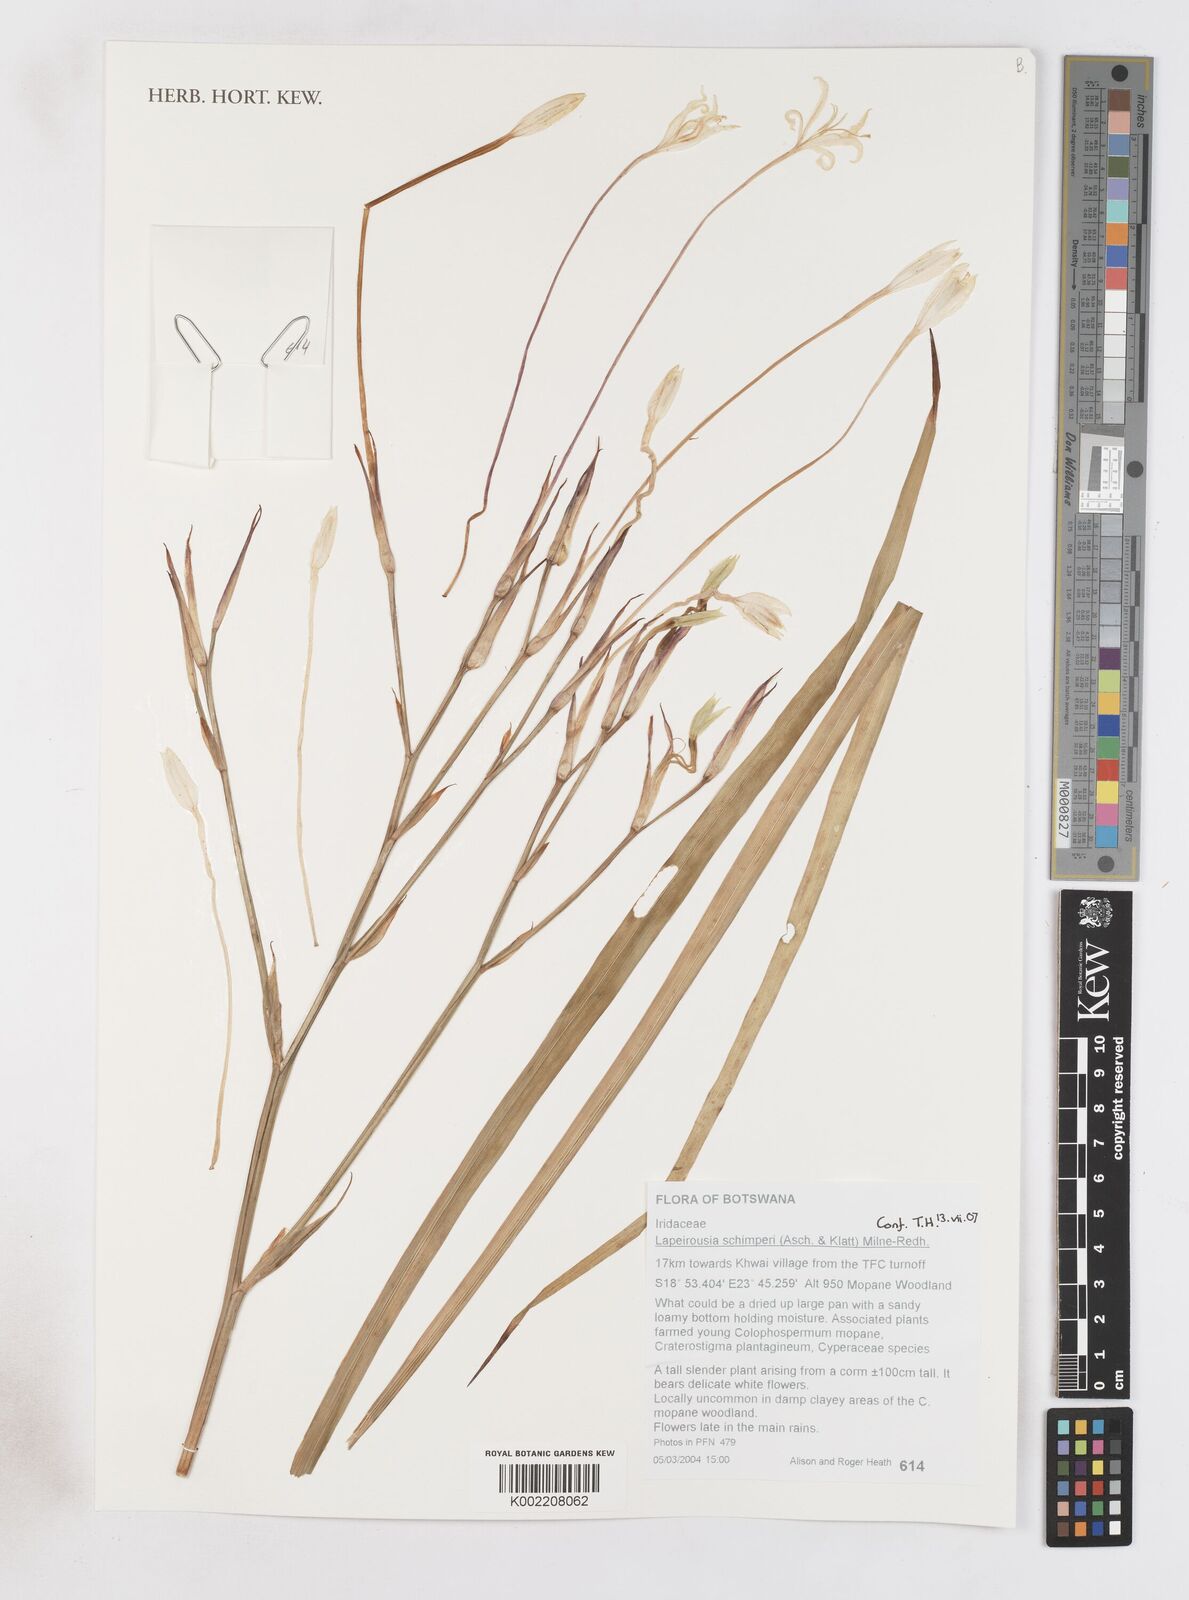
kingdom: Plantae
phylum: Tracheophyta
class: Liliopsida
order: Asparagales
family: Iridaceae
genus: Afrosolen
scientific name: Afrosolen schimperi
